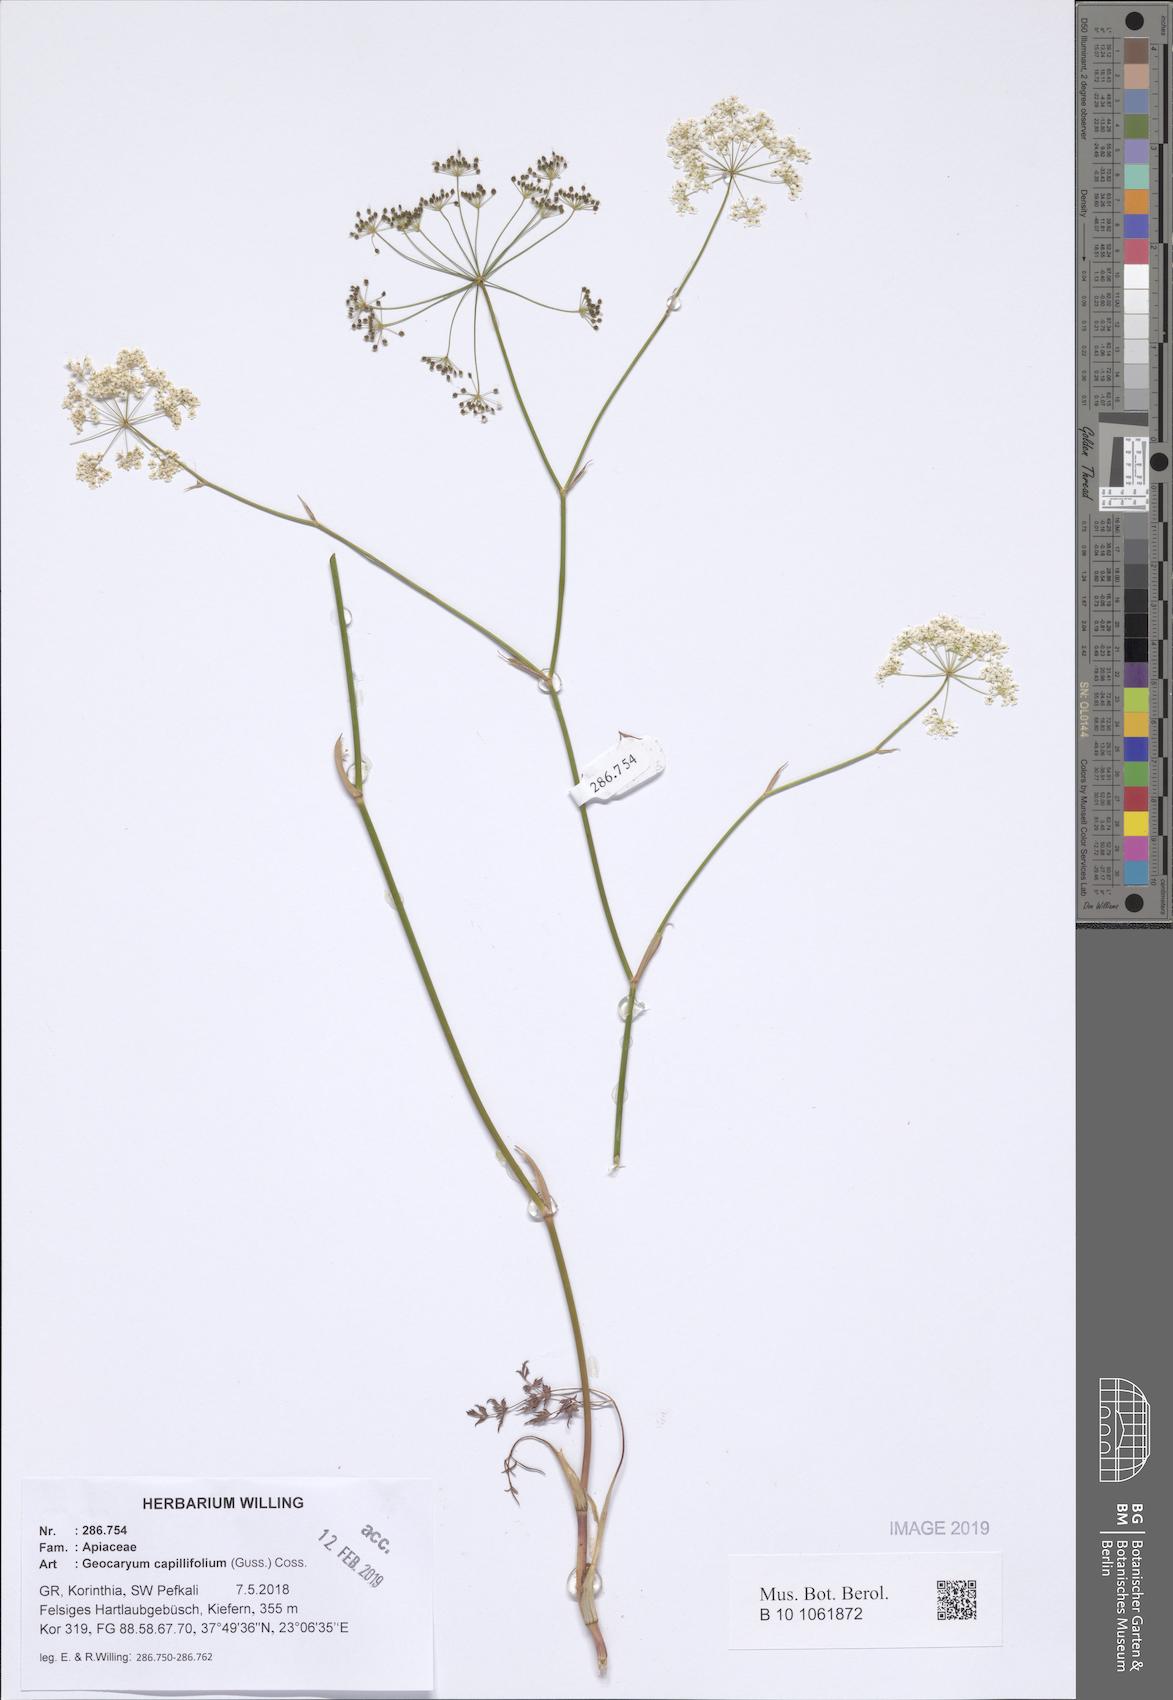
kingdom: Plantae
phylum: Tracheophyta
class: Magnoliopsida
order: Apiales
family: Apiaceae
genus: Geocaryum
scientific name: Geocaryum capillifolium
